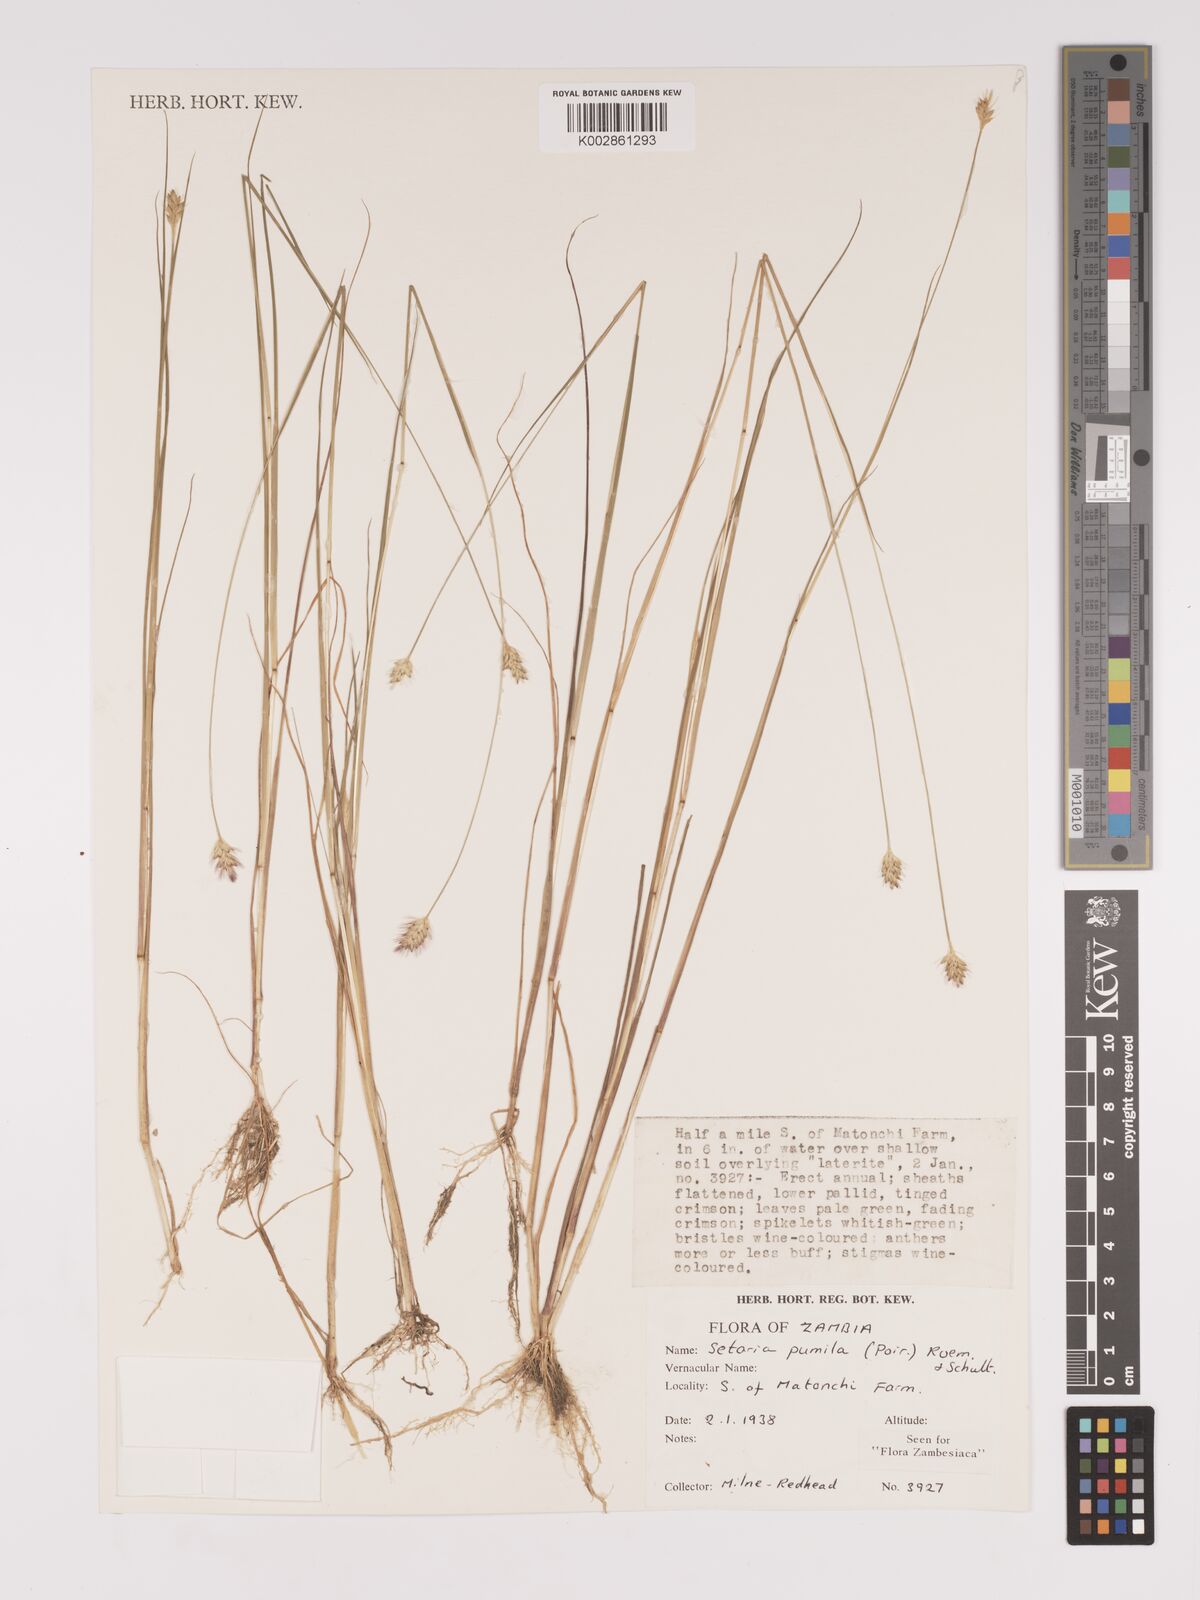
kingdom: Plantae
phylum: Tracheophyta
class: Liliopsida
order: Poales
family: Poaceae
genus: Setaria
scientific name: Setaria pumila
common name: Yellow bristle-grass
